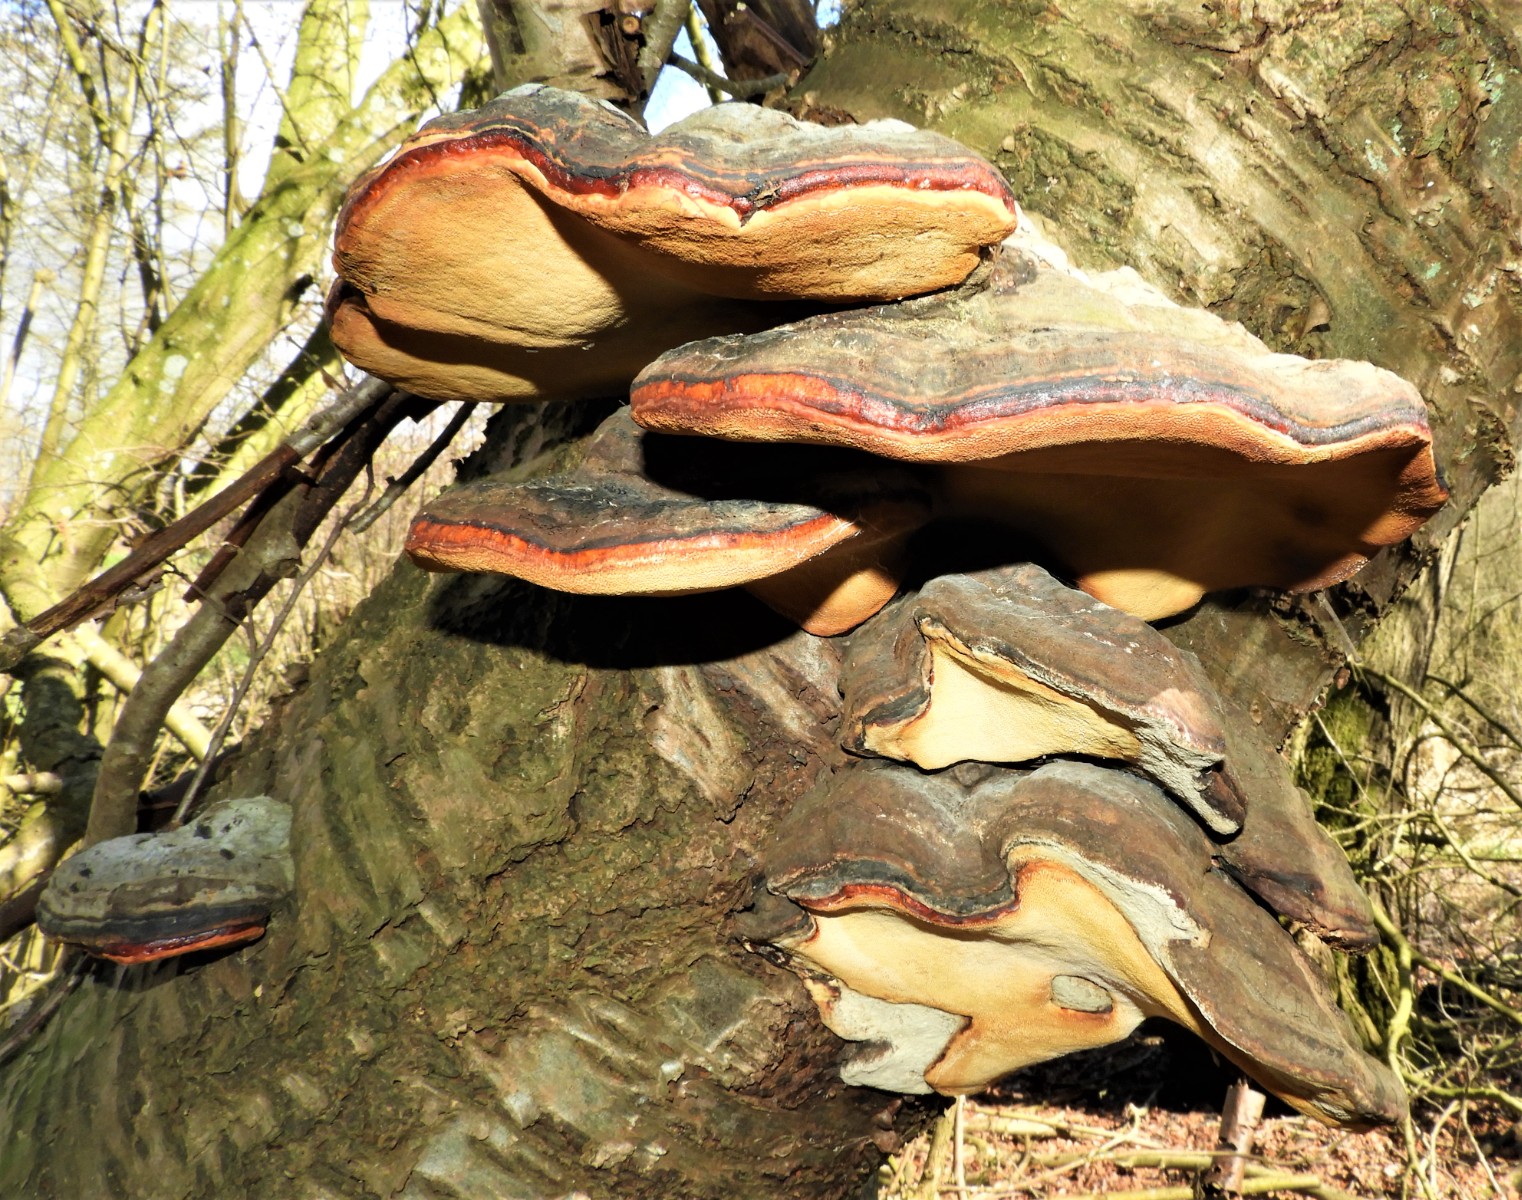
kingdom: Fungi
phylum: Basidiomycota
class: Agaricomycetes
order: Polyporales
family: Fomitopsidaceae
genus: Fomitopsis
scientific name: Fomitopsis pinicola
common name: randbæltet hovporesvamp
